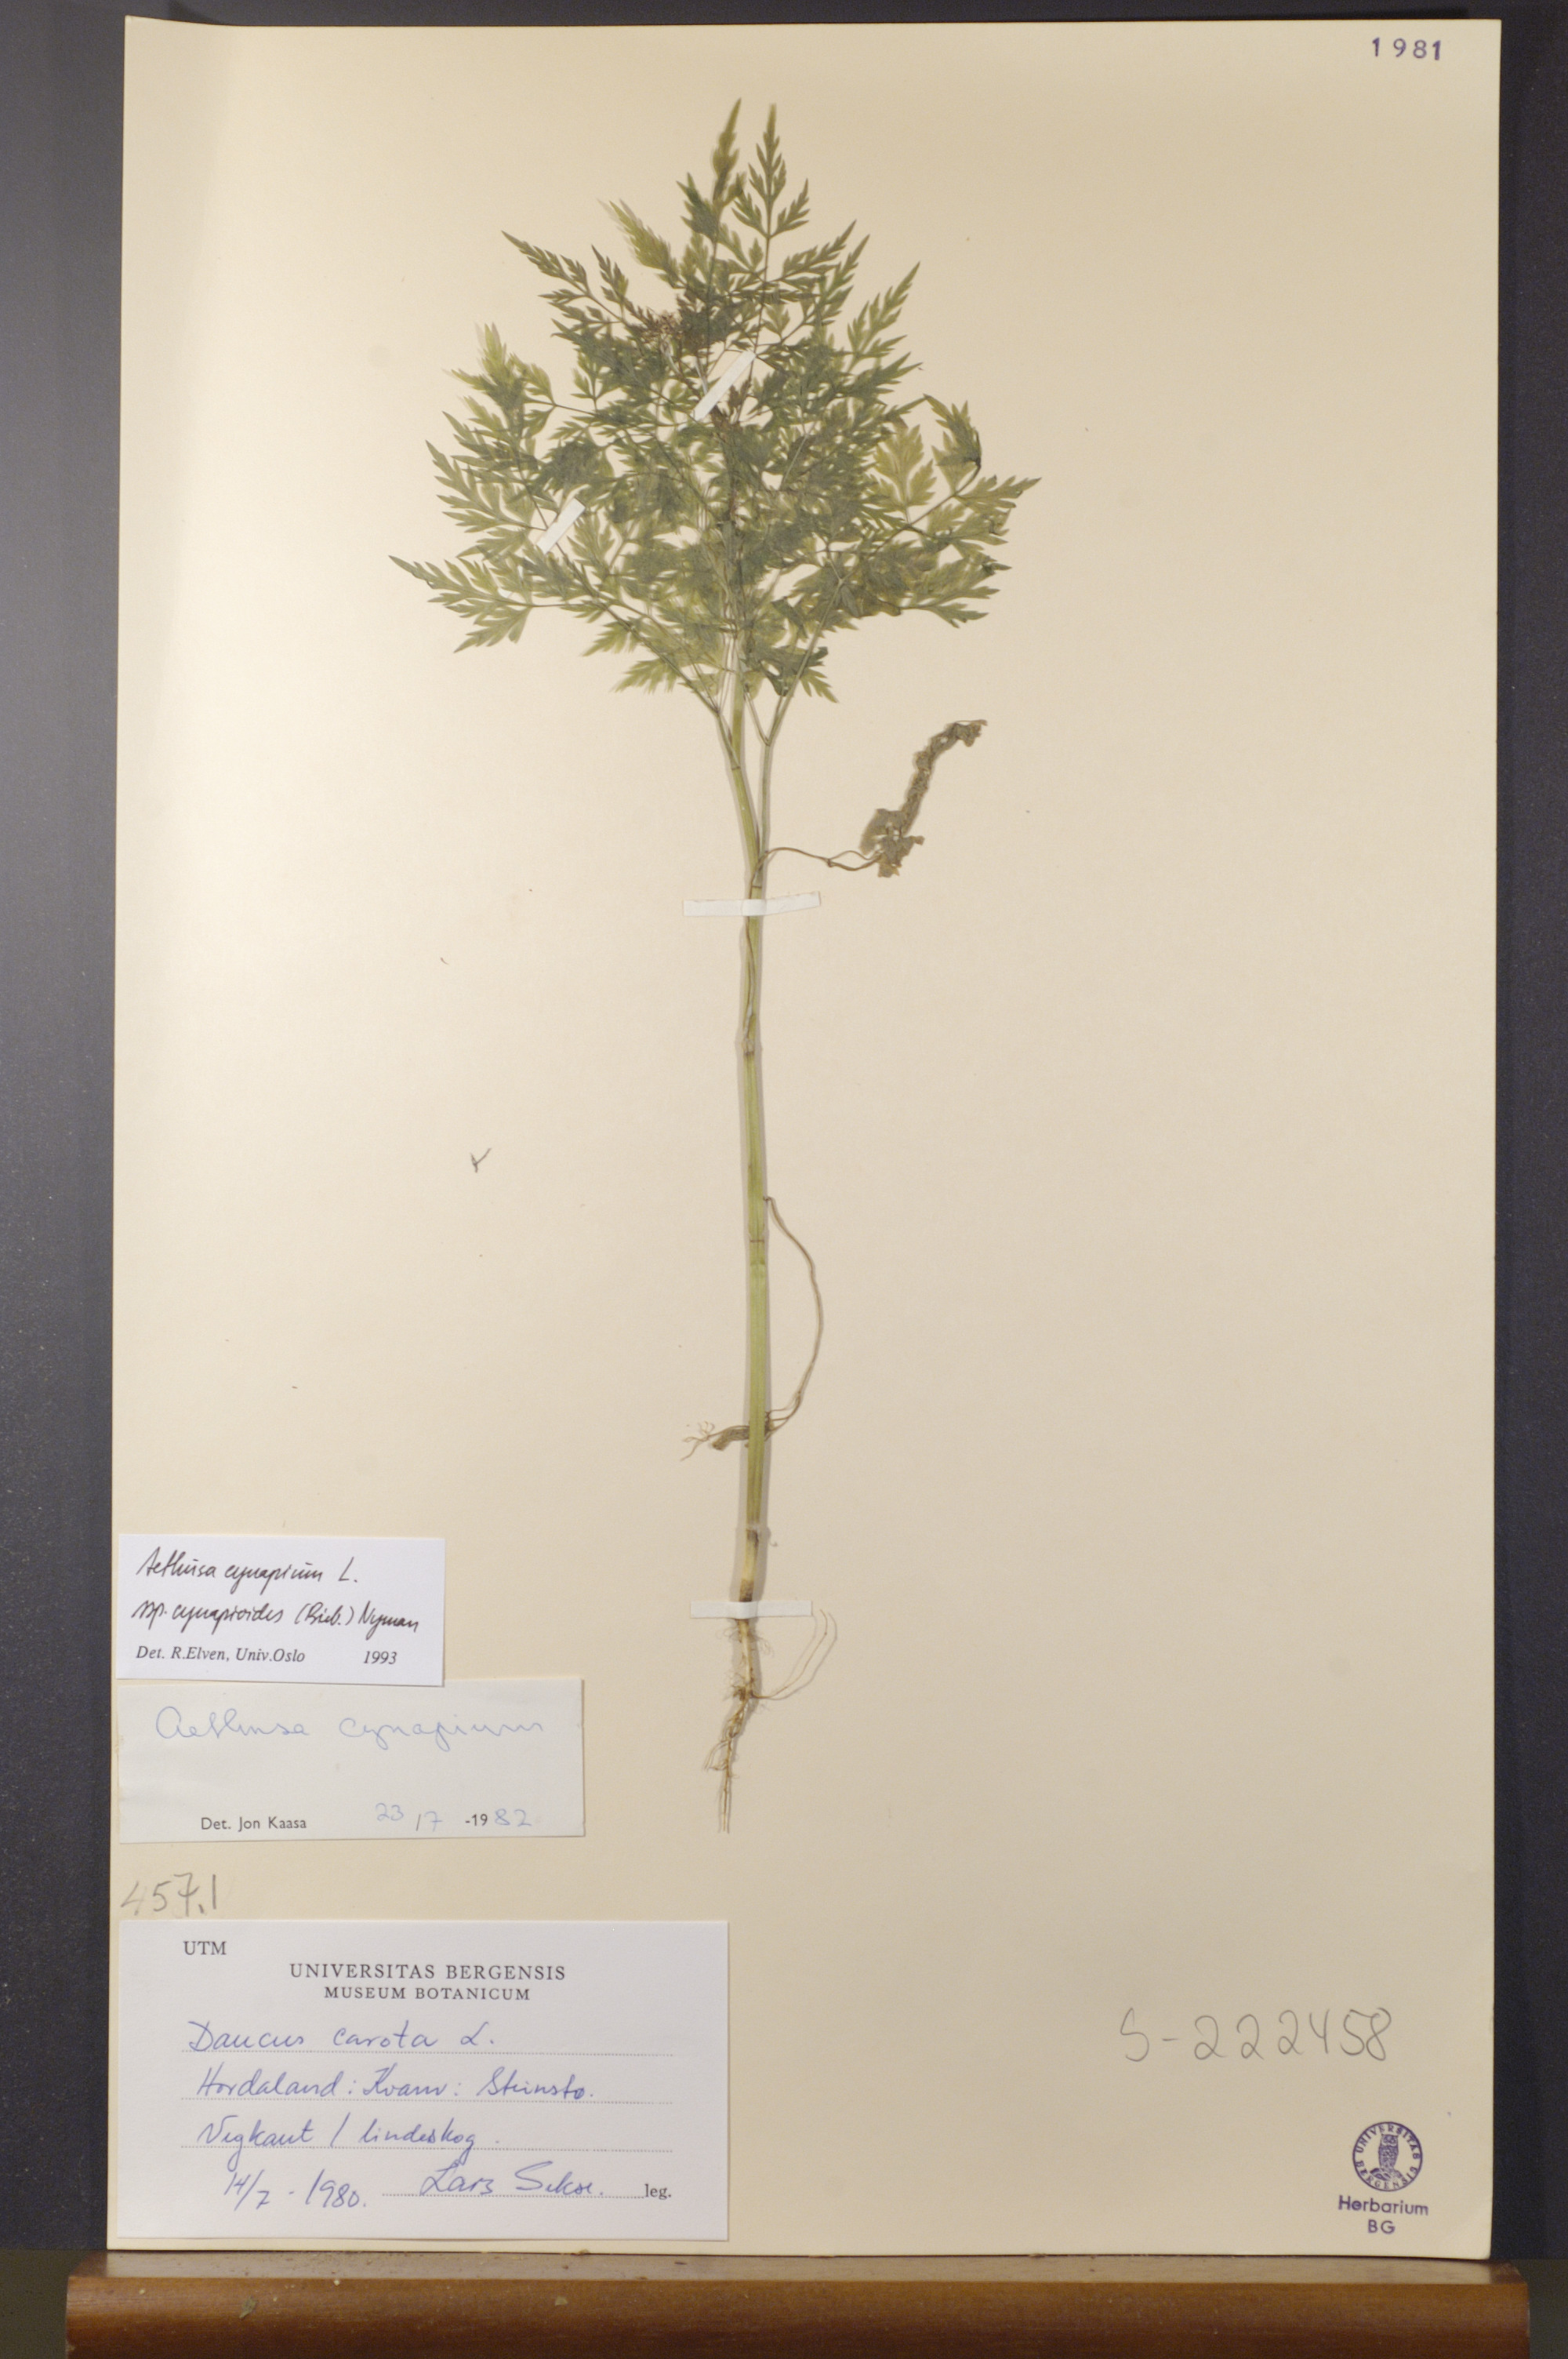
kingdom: Plantae
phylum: Tracheophyta
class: Magnoliopsida
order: Apiales
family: Apiaceae
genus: Aethusa
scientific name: Aethusa cynapium
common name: Fool's parsley
